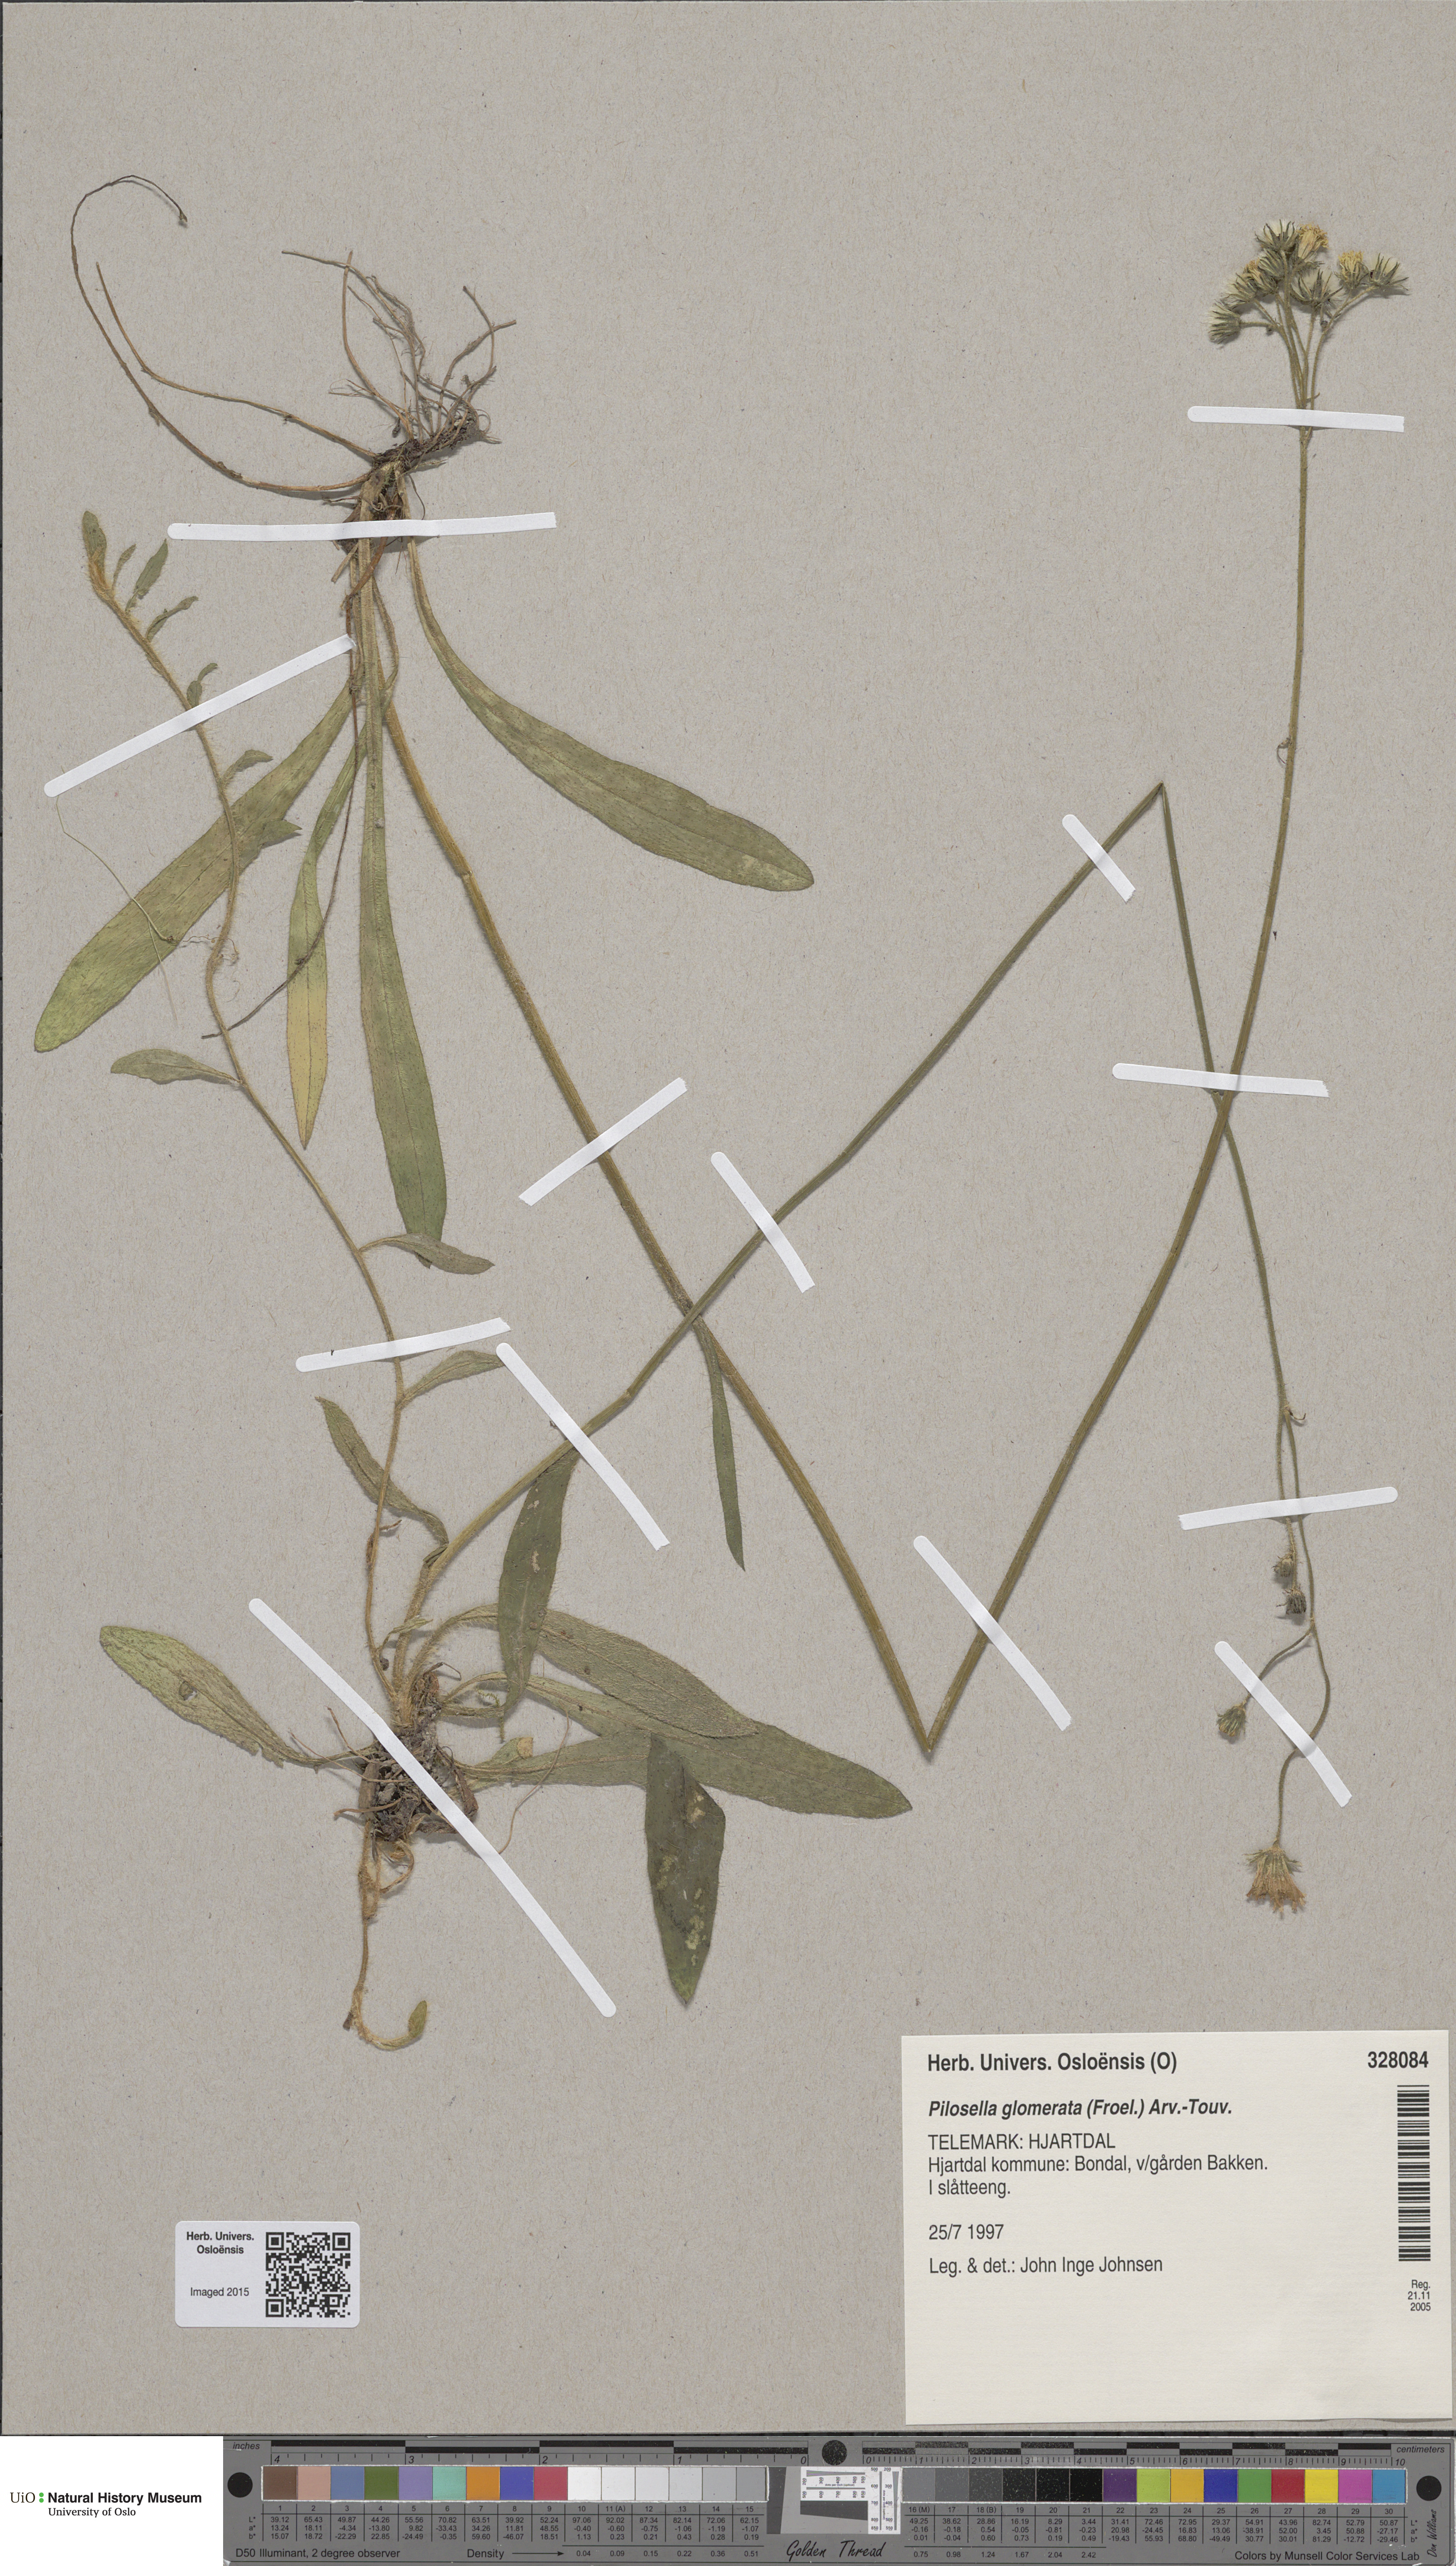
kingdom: Plantae
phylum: Tracheophyta
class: Magnoliopsida
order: Asterales
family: Asteraceae
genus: Pilosella
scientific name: Pilosella glomerata
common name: Queen devil hawkweed
